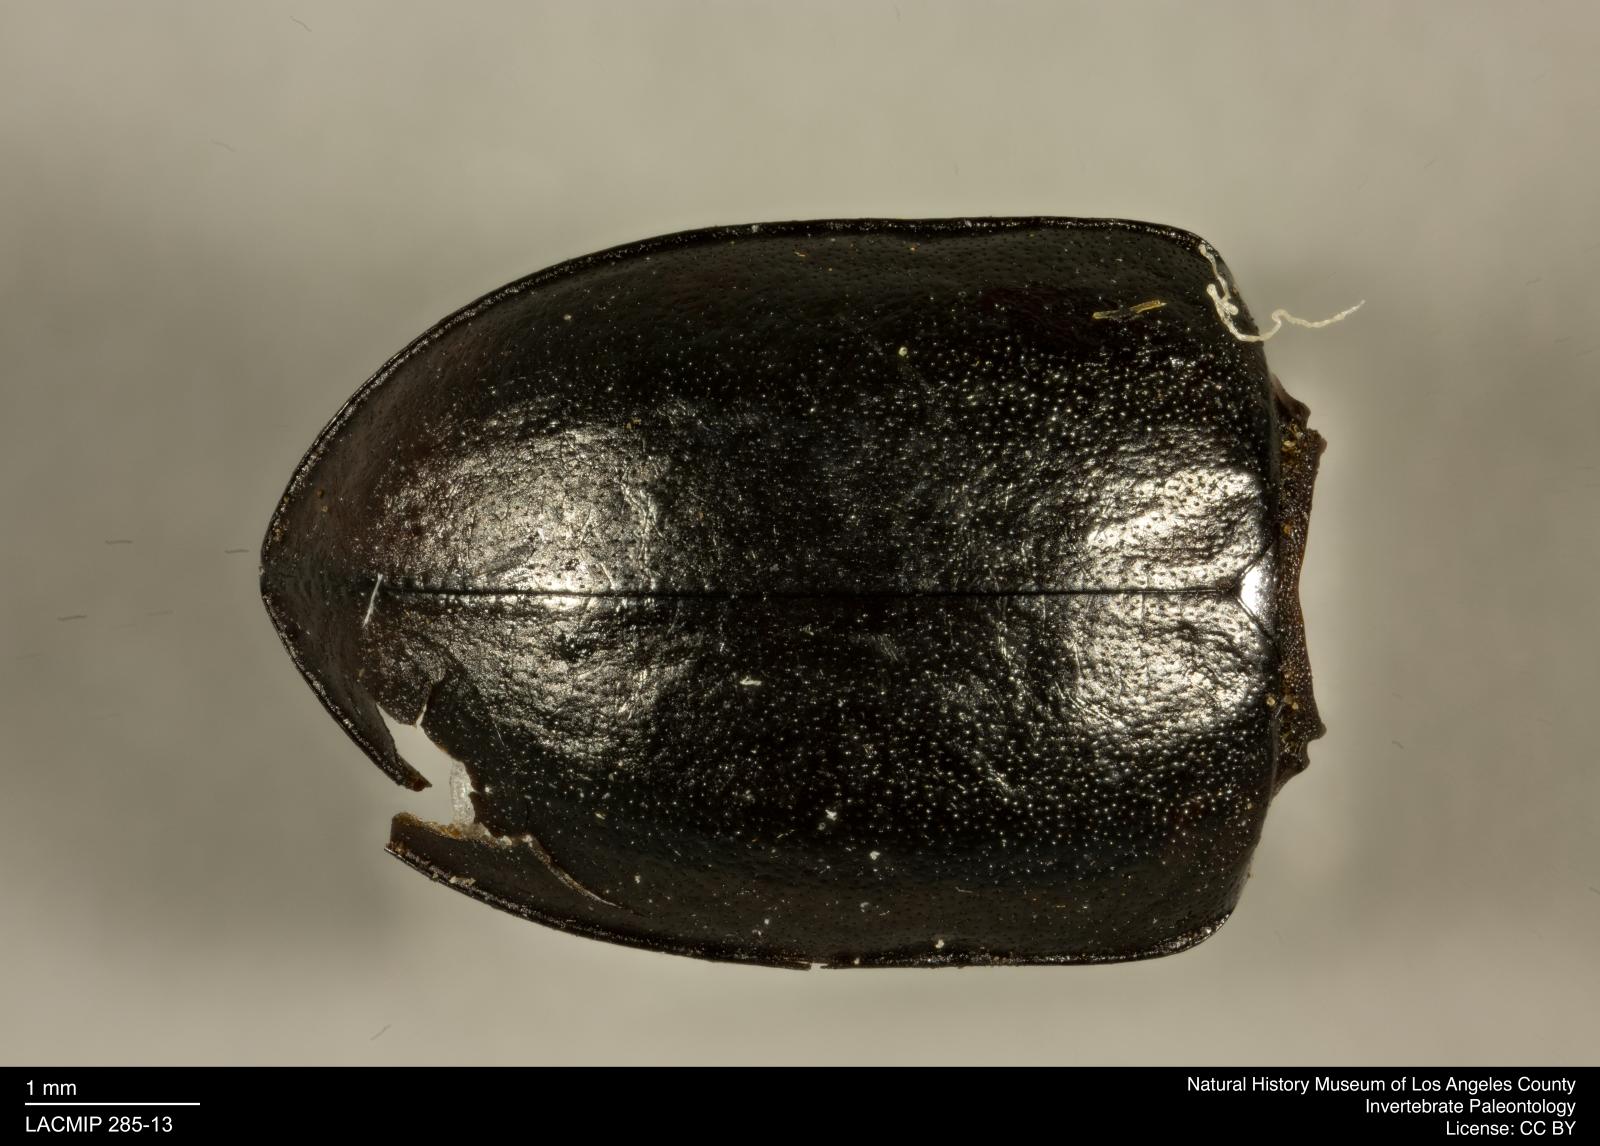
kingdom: Animalia
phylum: Arthropoda
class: Insecta
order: Coleoptera
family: Tenebrionidae
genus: Coniontis
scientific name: Coniontis remnans
